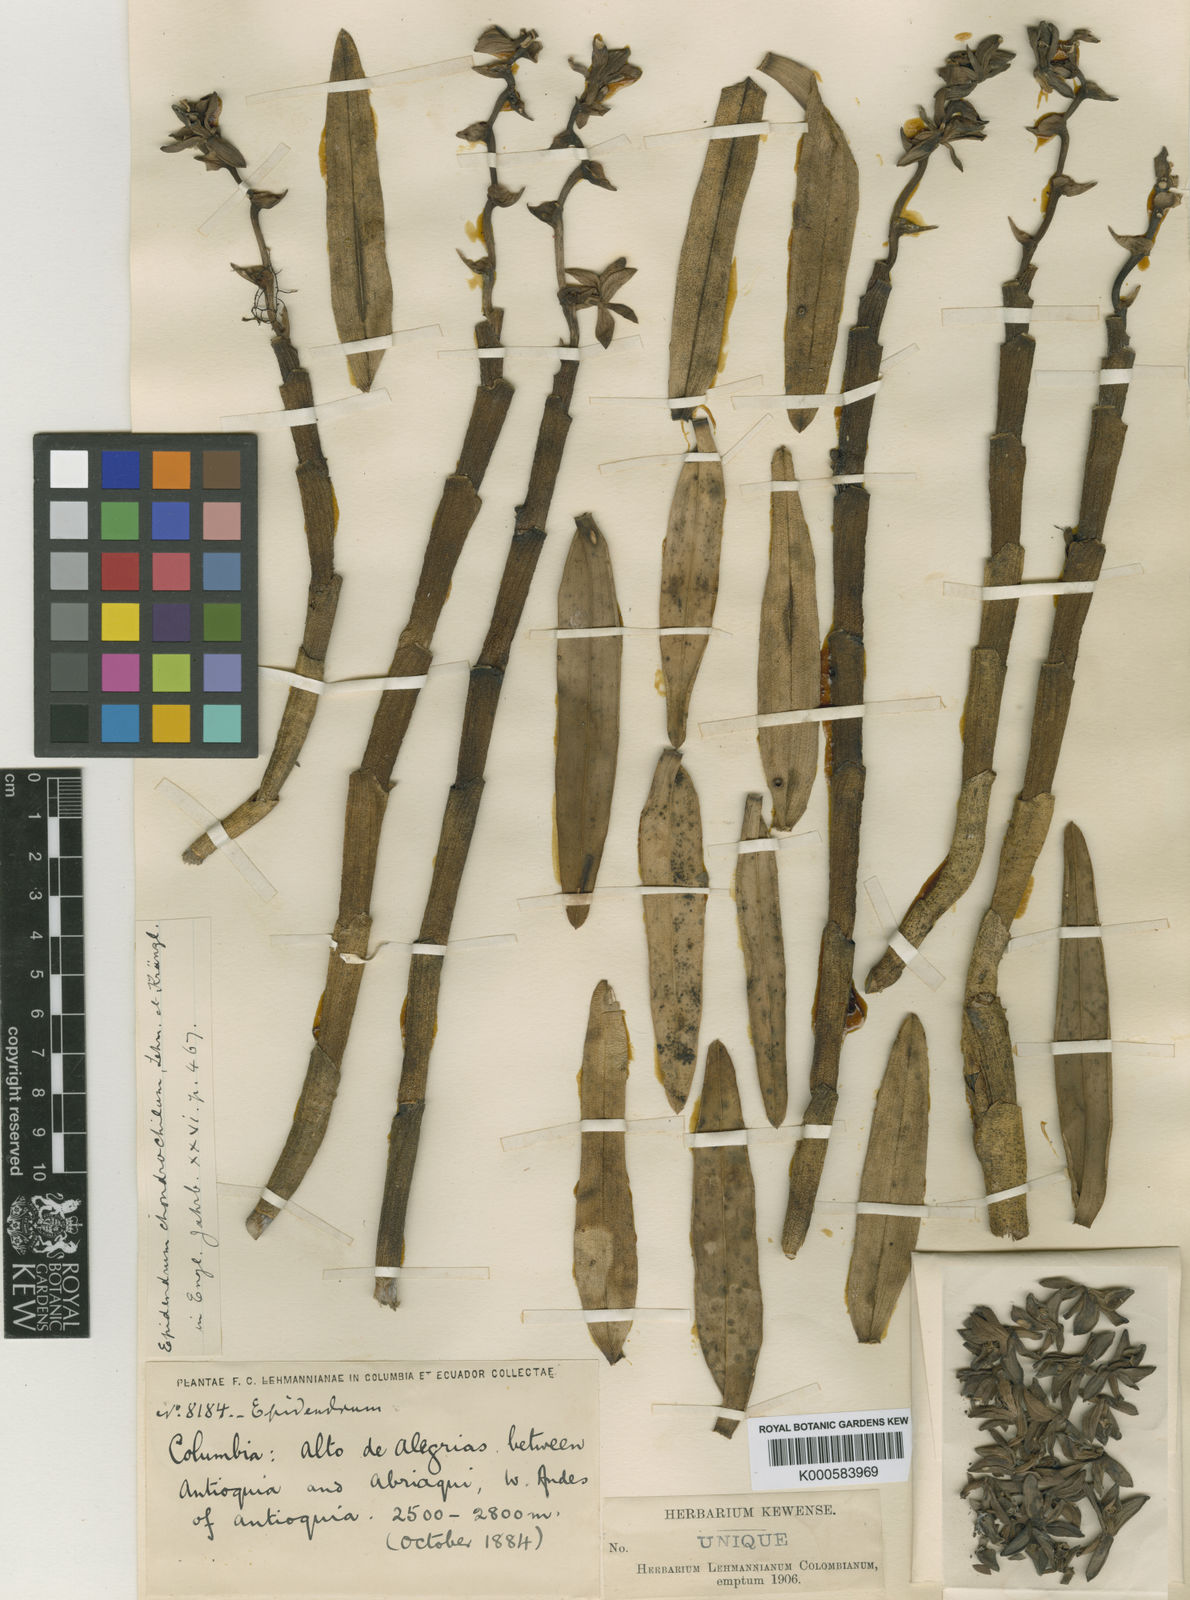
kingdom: Plantae
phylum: Tracheophyta
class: Liliopsida
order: Asparagales
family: Orchidaceae
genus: Epidendrum
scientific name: Epidendrum chondrochilum
